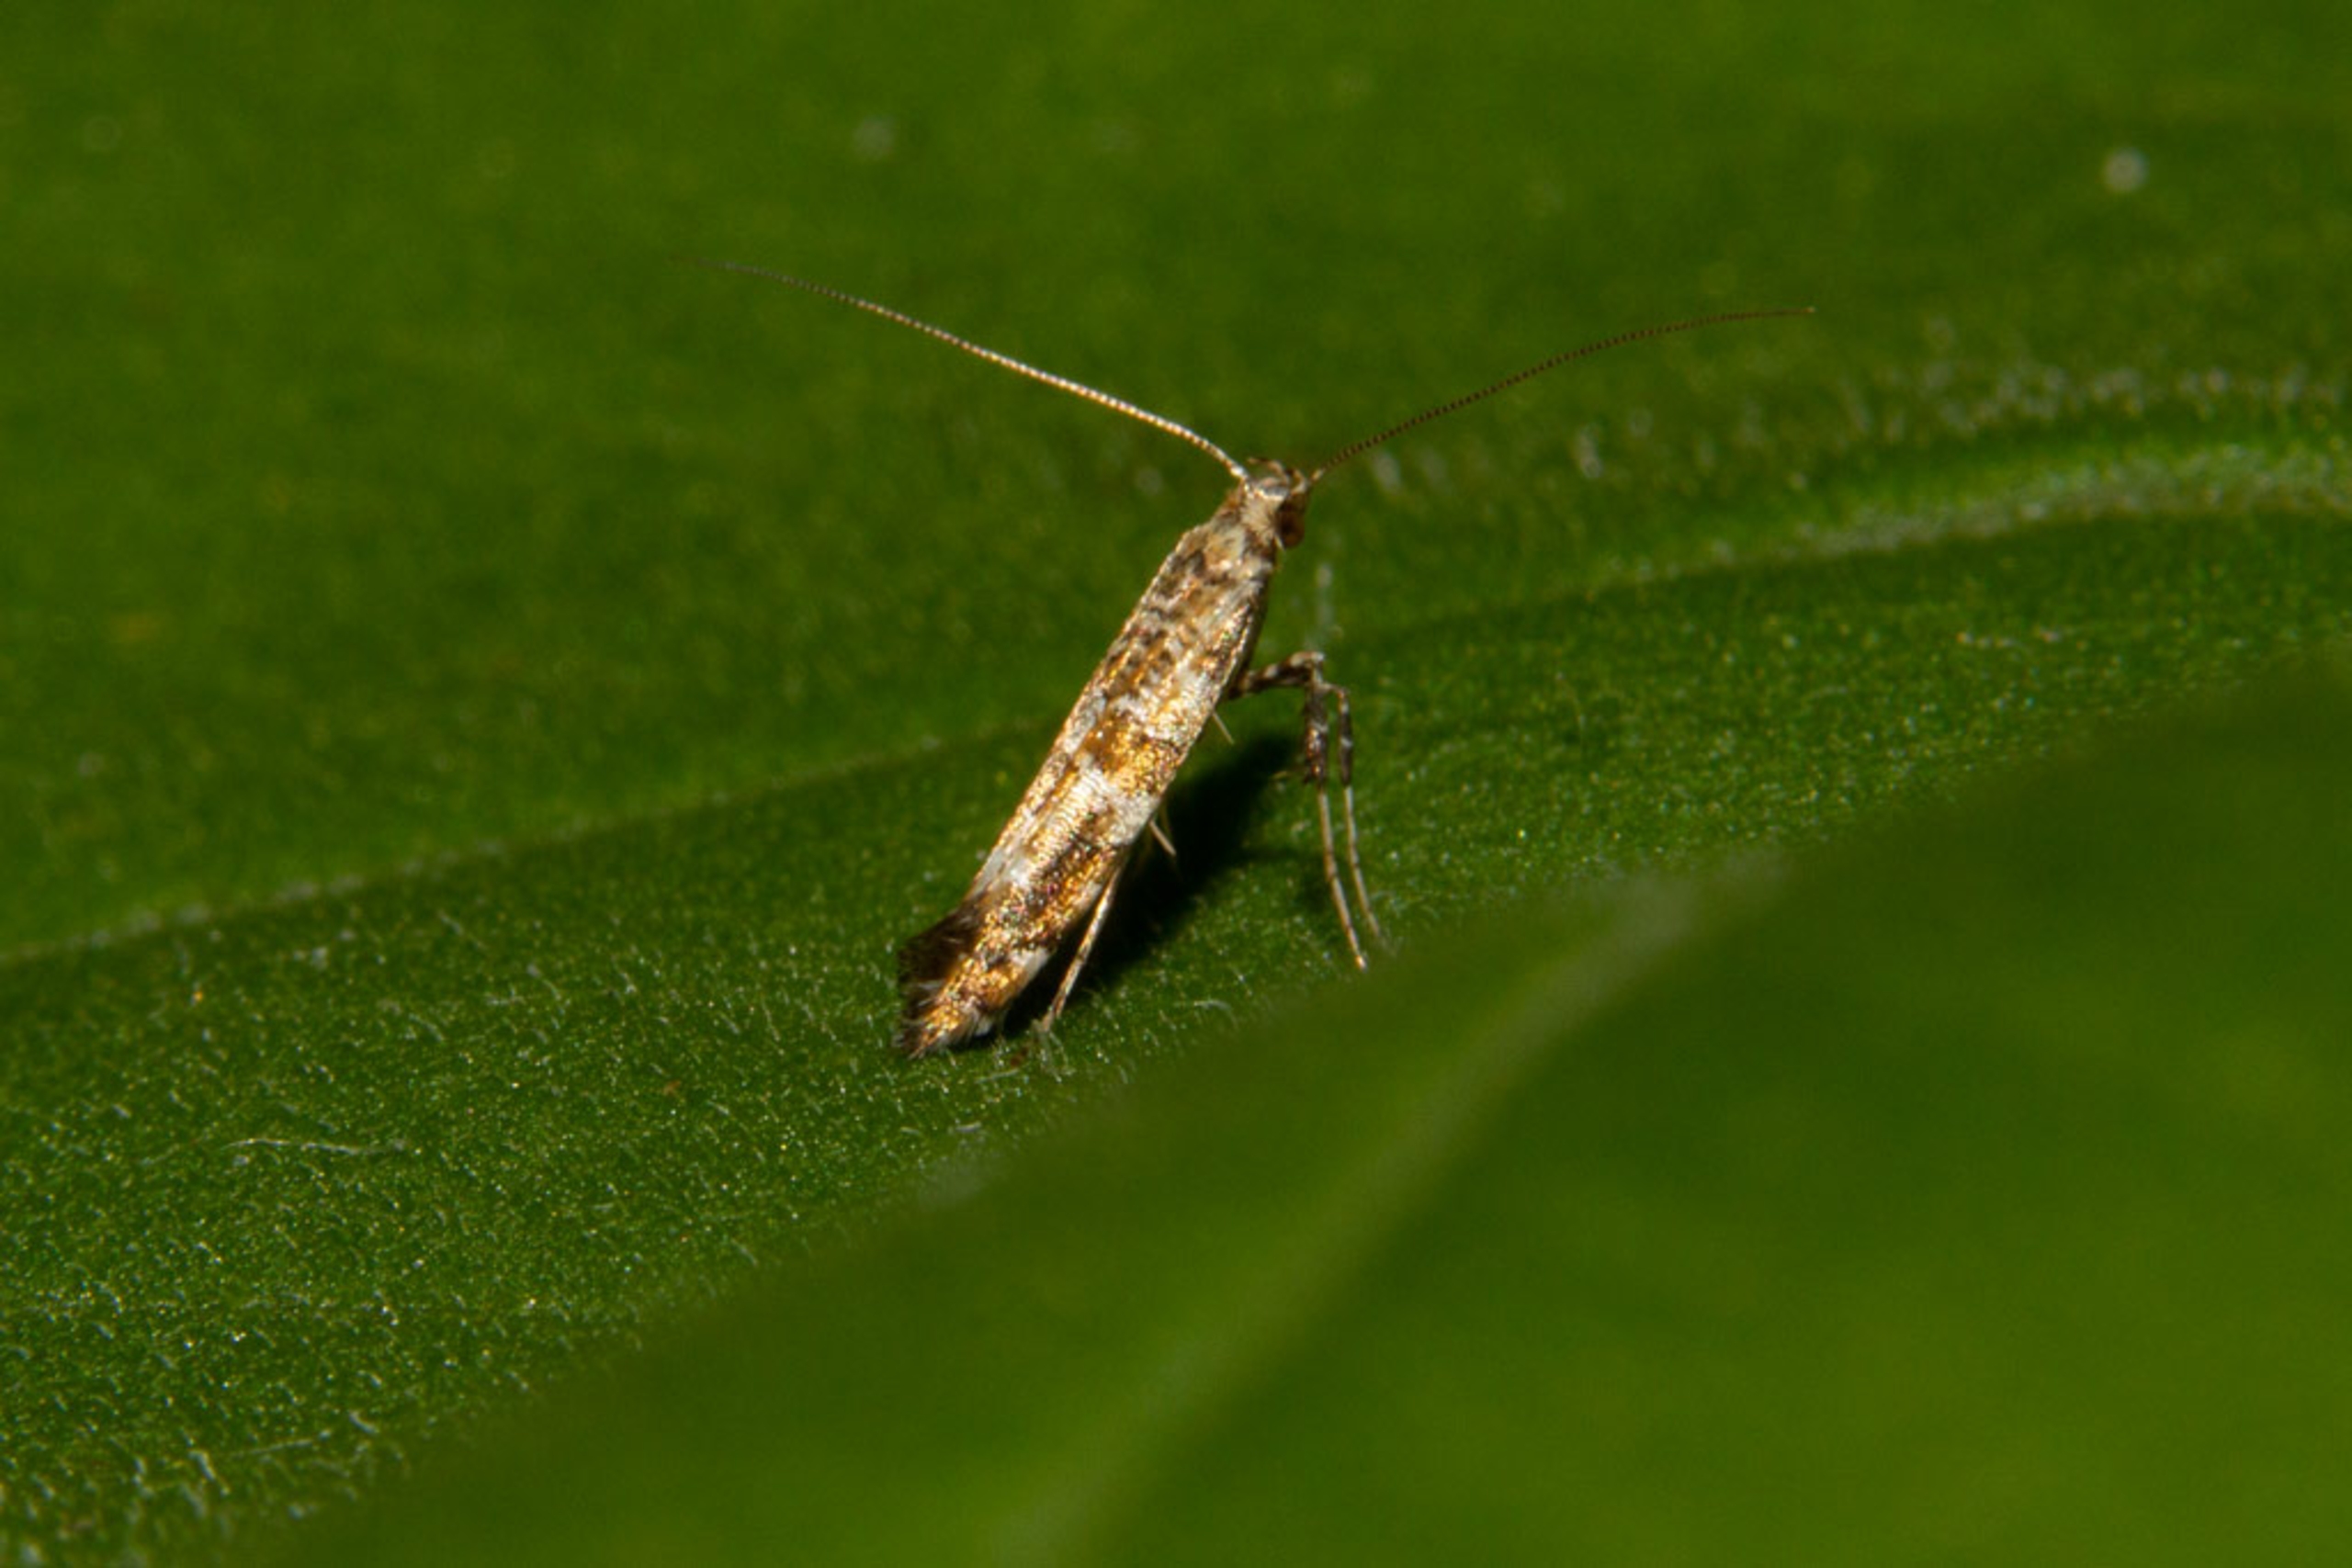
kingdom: Animalia
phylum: Arthropoda
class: Insecta
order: Lepidoptera
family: Gracillariidae
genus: Gracillaria
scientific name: Gracillaria syringella
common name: Syrenmøl
